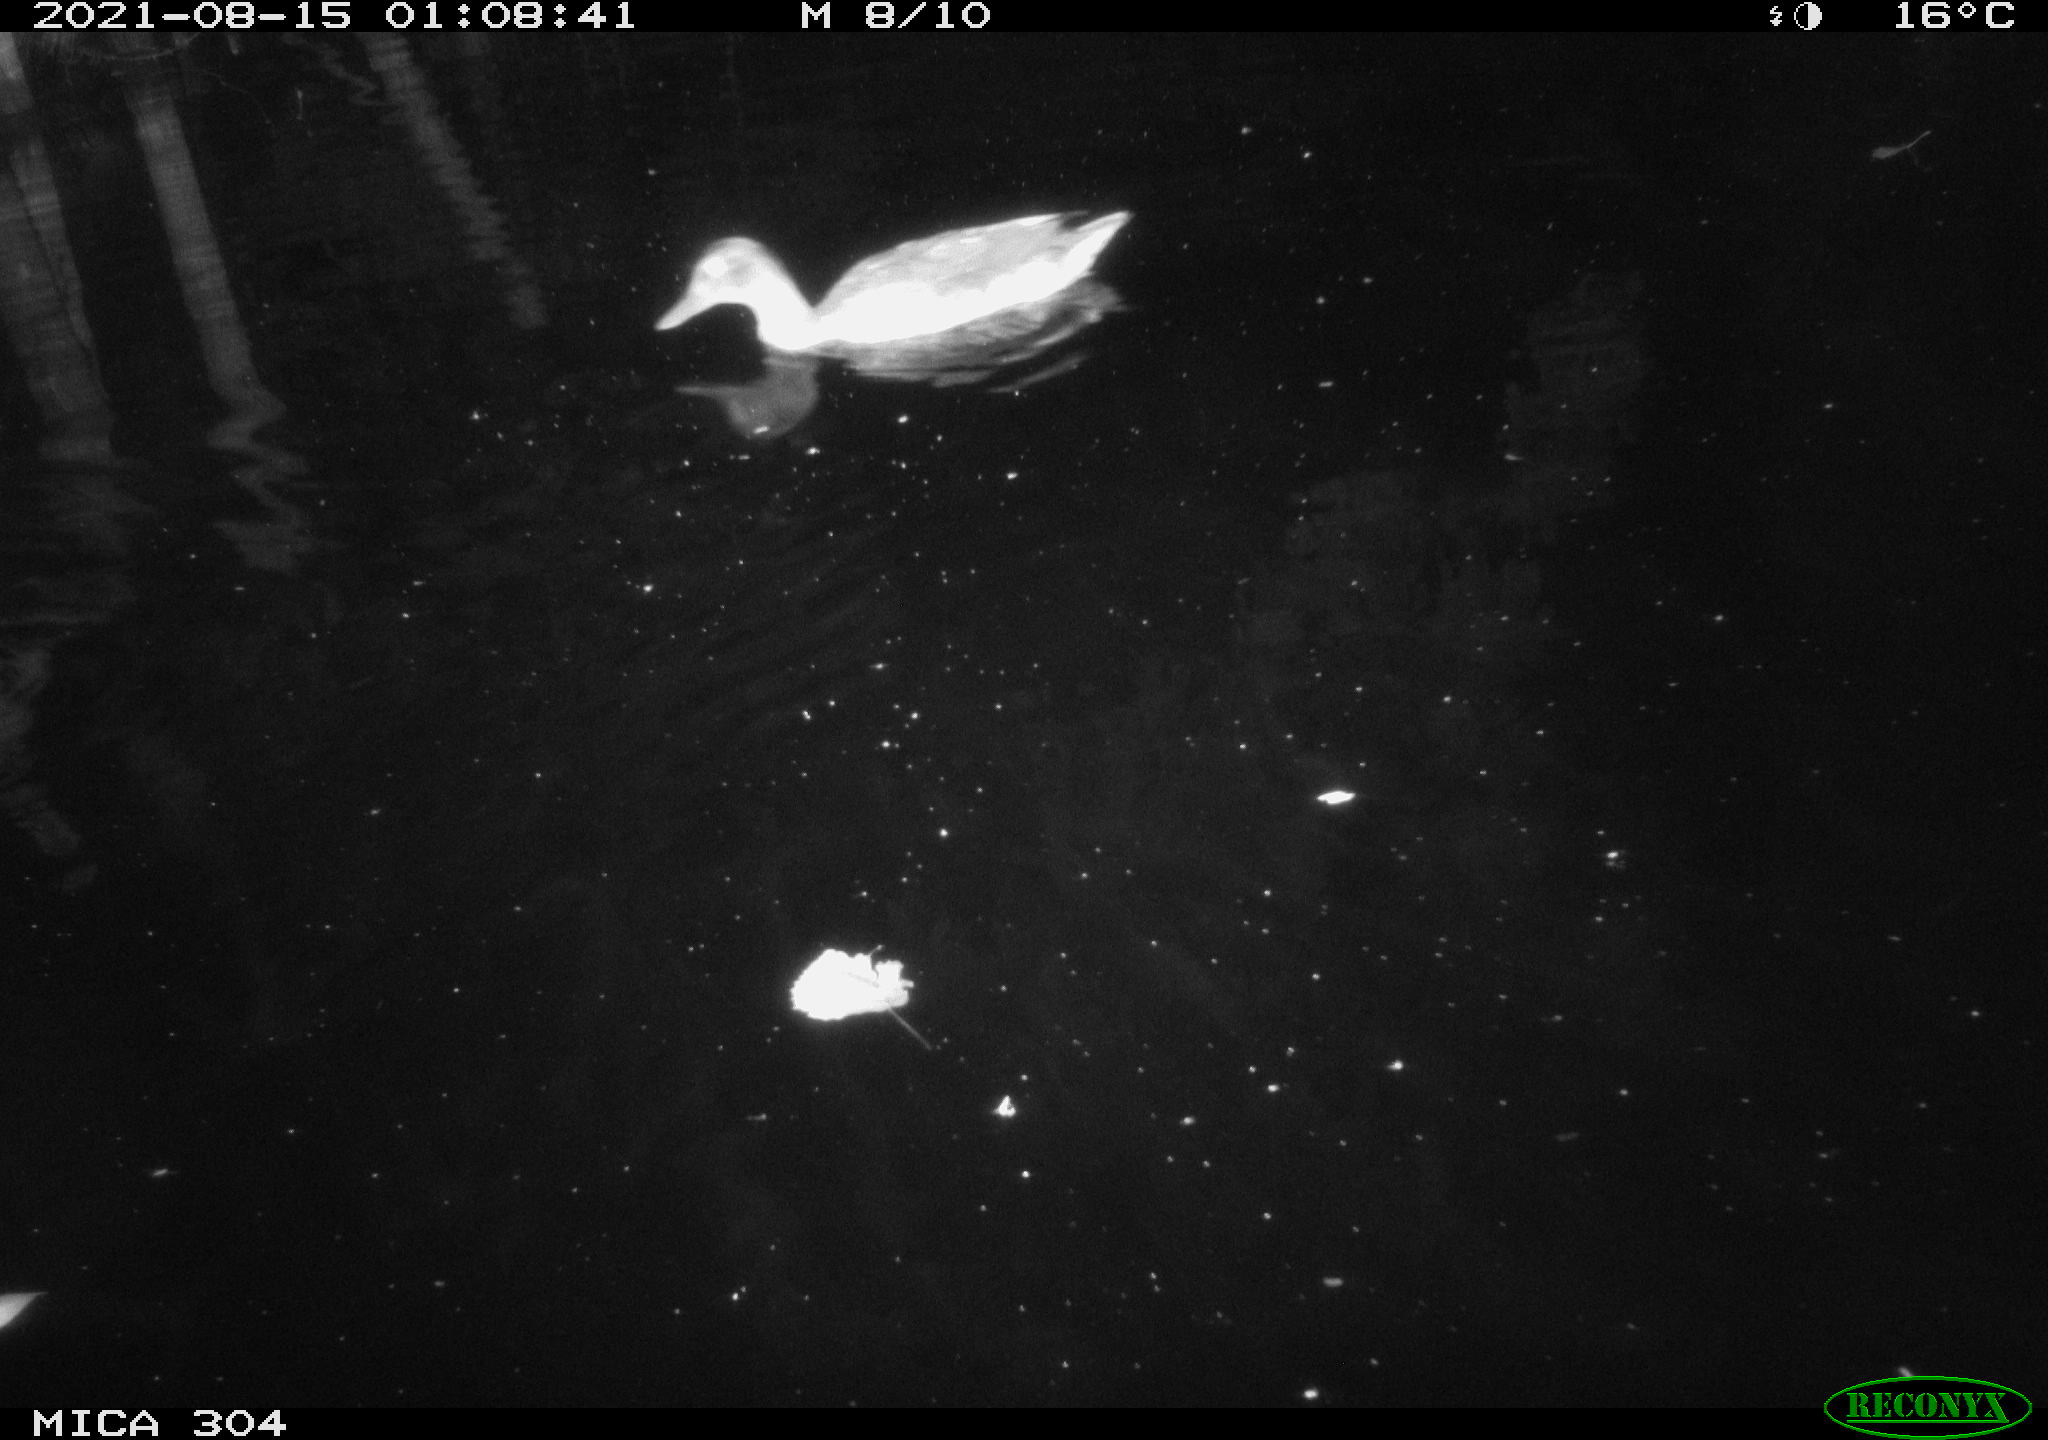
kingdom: Animalia
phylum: Chordata
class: Aves
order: Anseriformes
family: Anatidae
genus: Mareca
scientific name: Mareca strepera
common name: Gadwall
